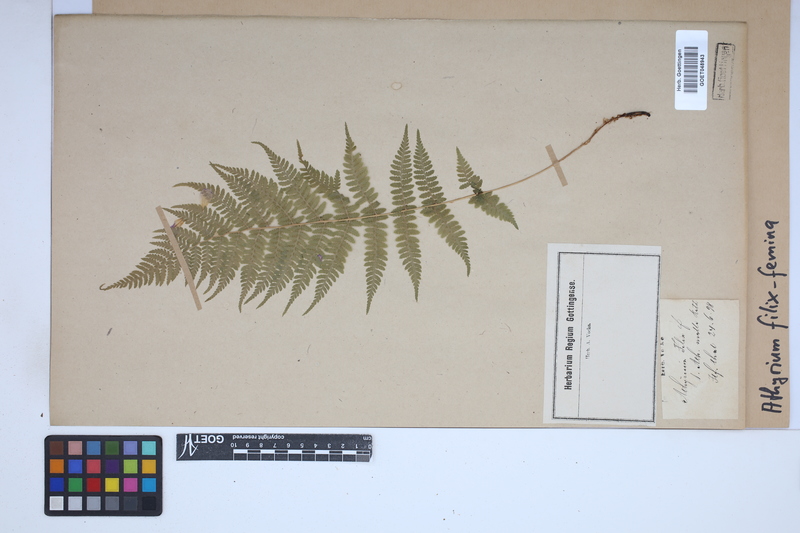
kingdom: Plantae
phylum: Tracheophyta
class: Polypodiopsida
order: Polypodiales
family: Athyriaceae
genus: Athyrium
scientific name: Athyrium filix-femina
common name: Lady fern
